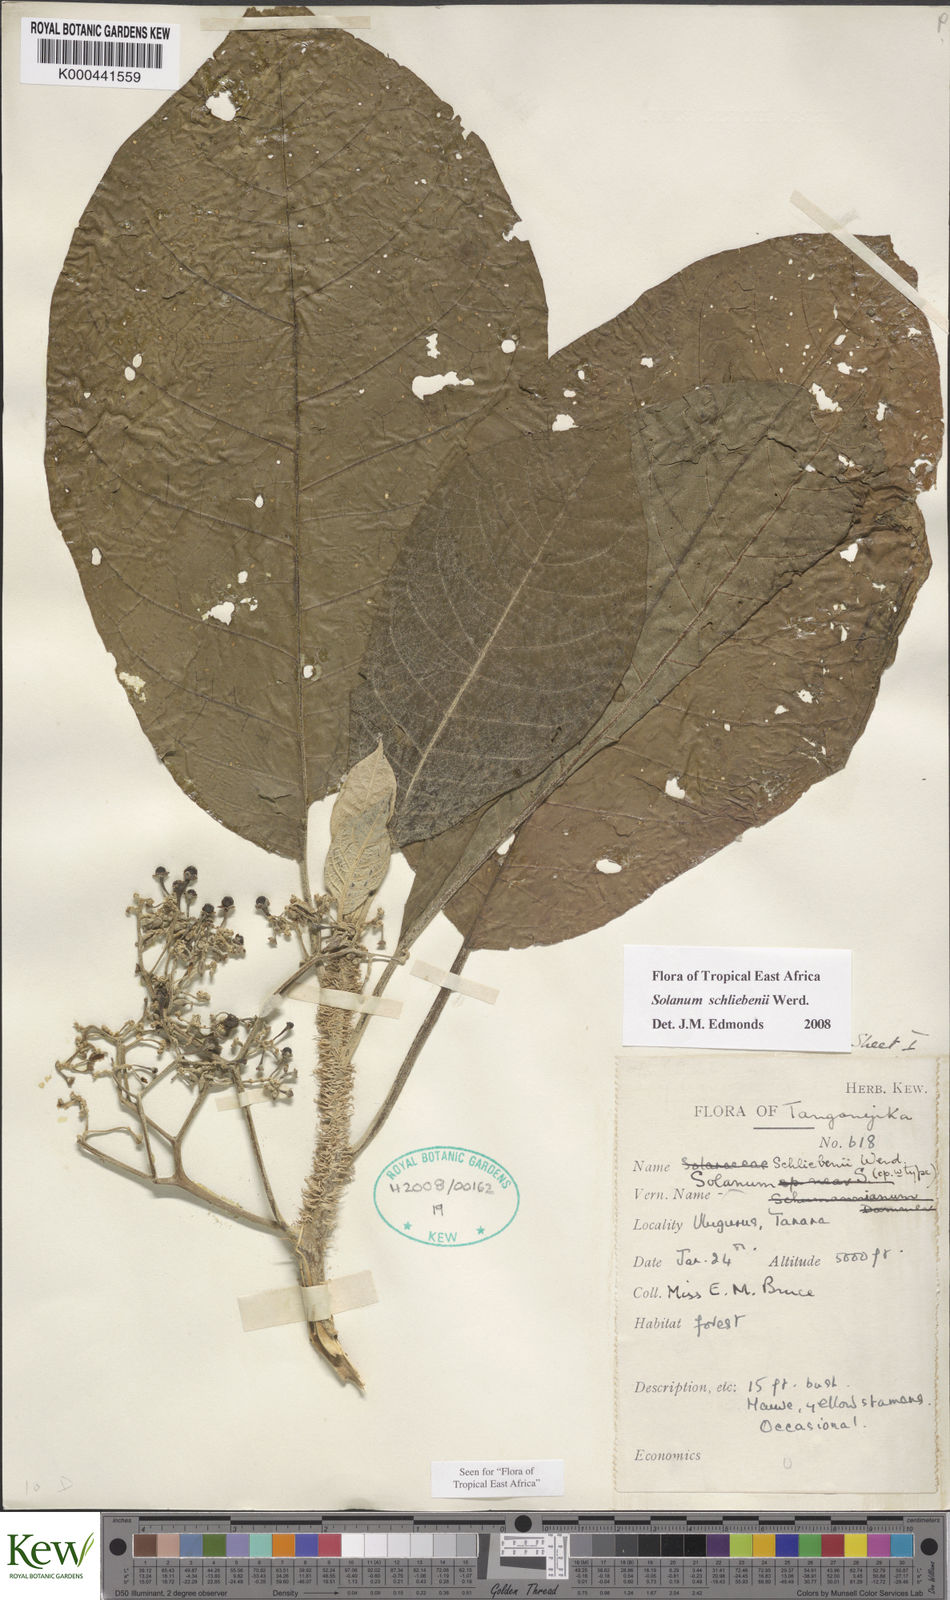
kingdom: Plantae
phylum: Tracheophyta
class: Magnoliopsida
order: Solanales
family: Solanaceae
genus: Solanum
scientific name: Solanum schliebenii
